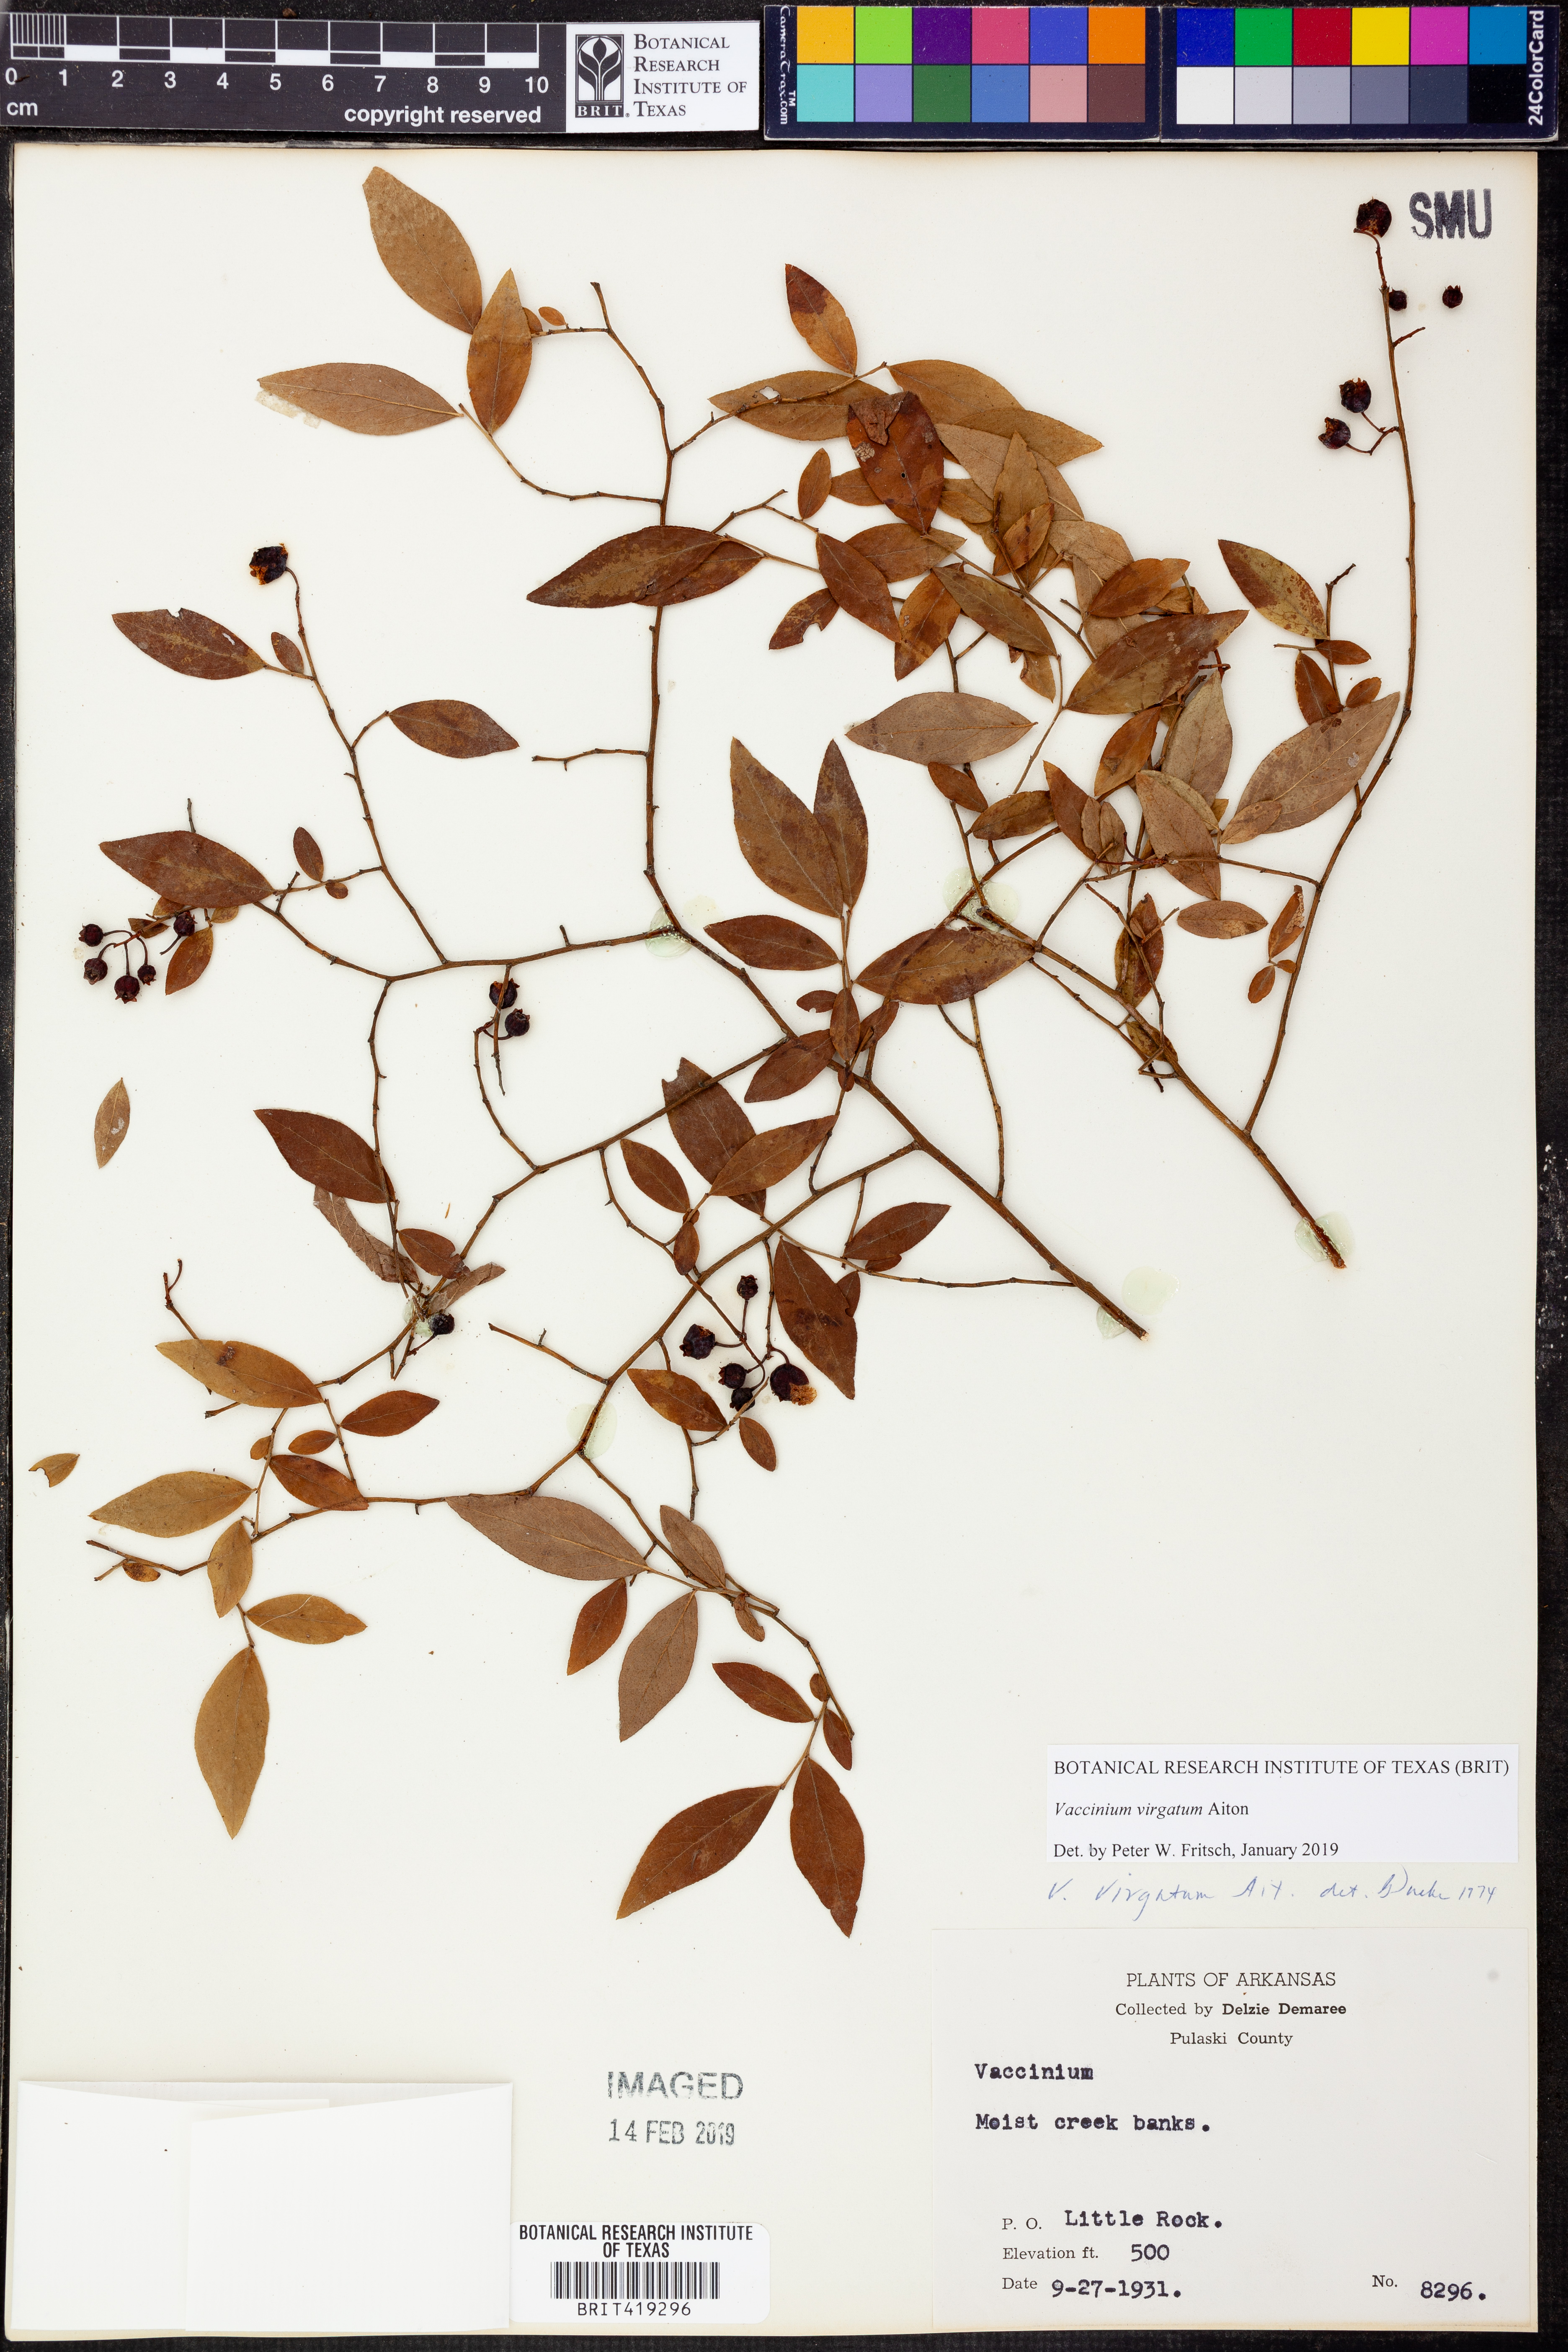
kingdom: Plantae
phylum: Tracheophyta
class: Magnoliopsida
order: Ericales
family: Ericaceae
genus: Vaccinium
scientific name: Vaccinium corymbosum
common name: Blueberry
